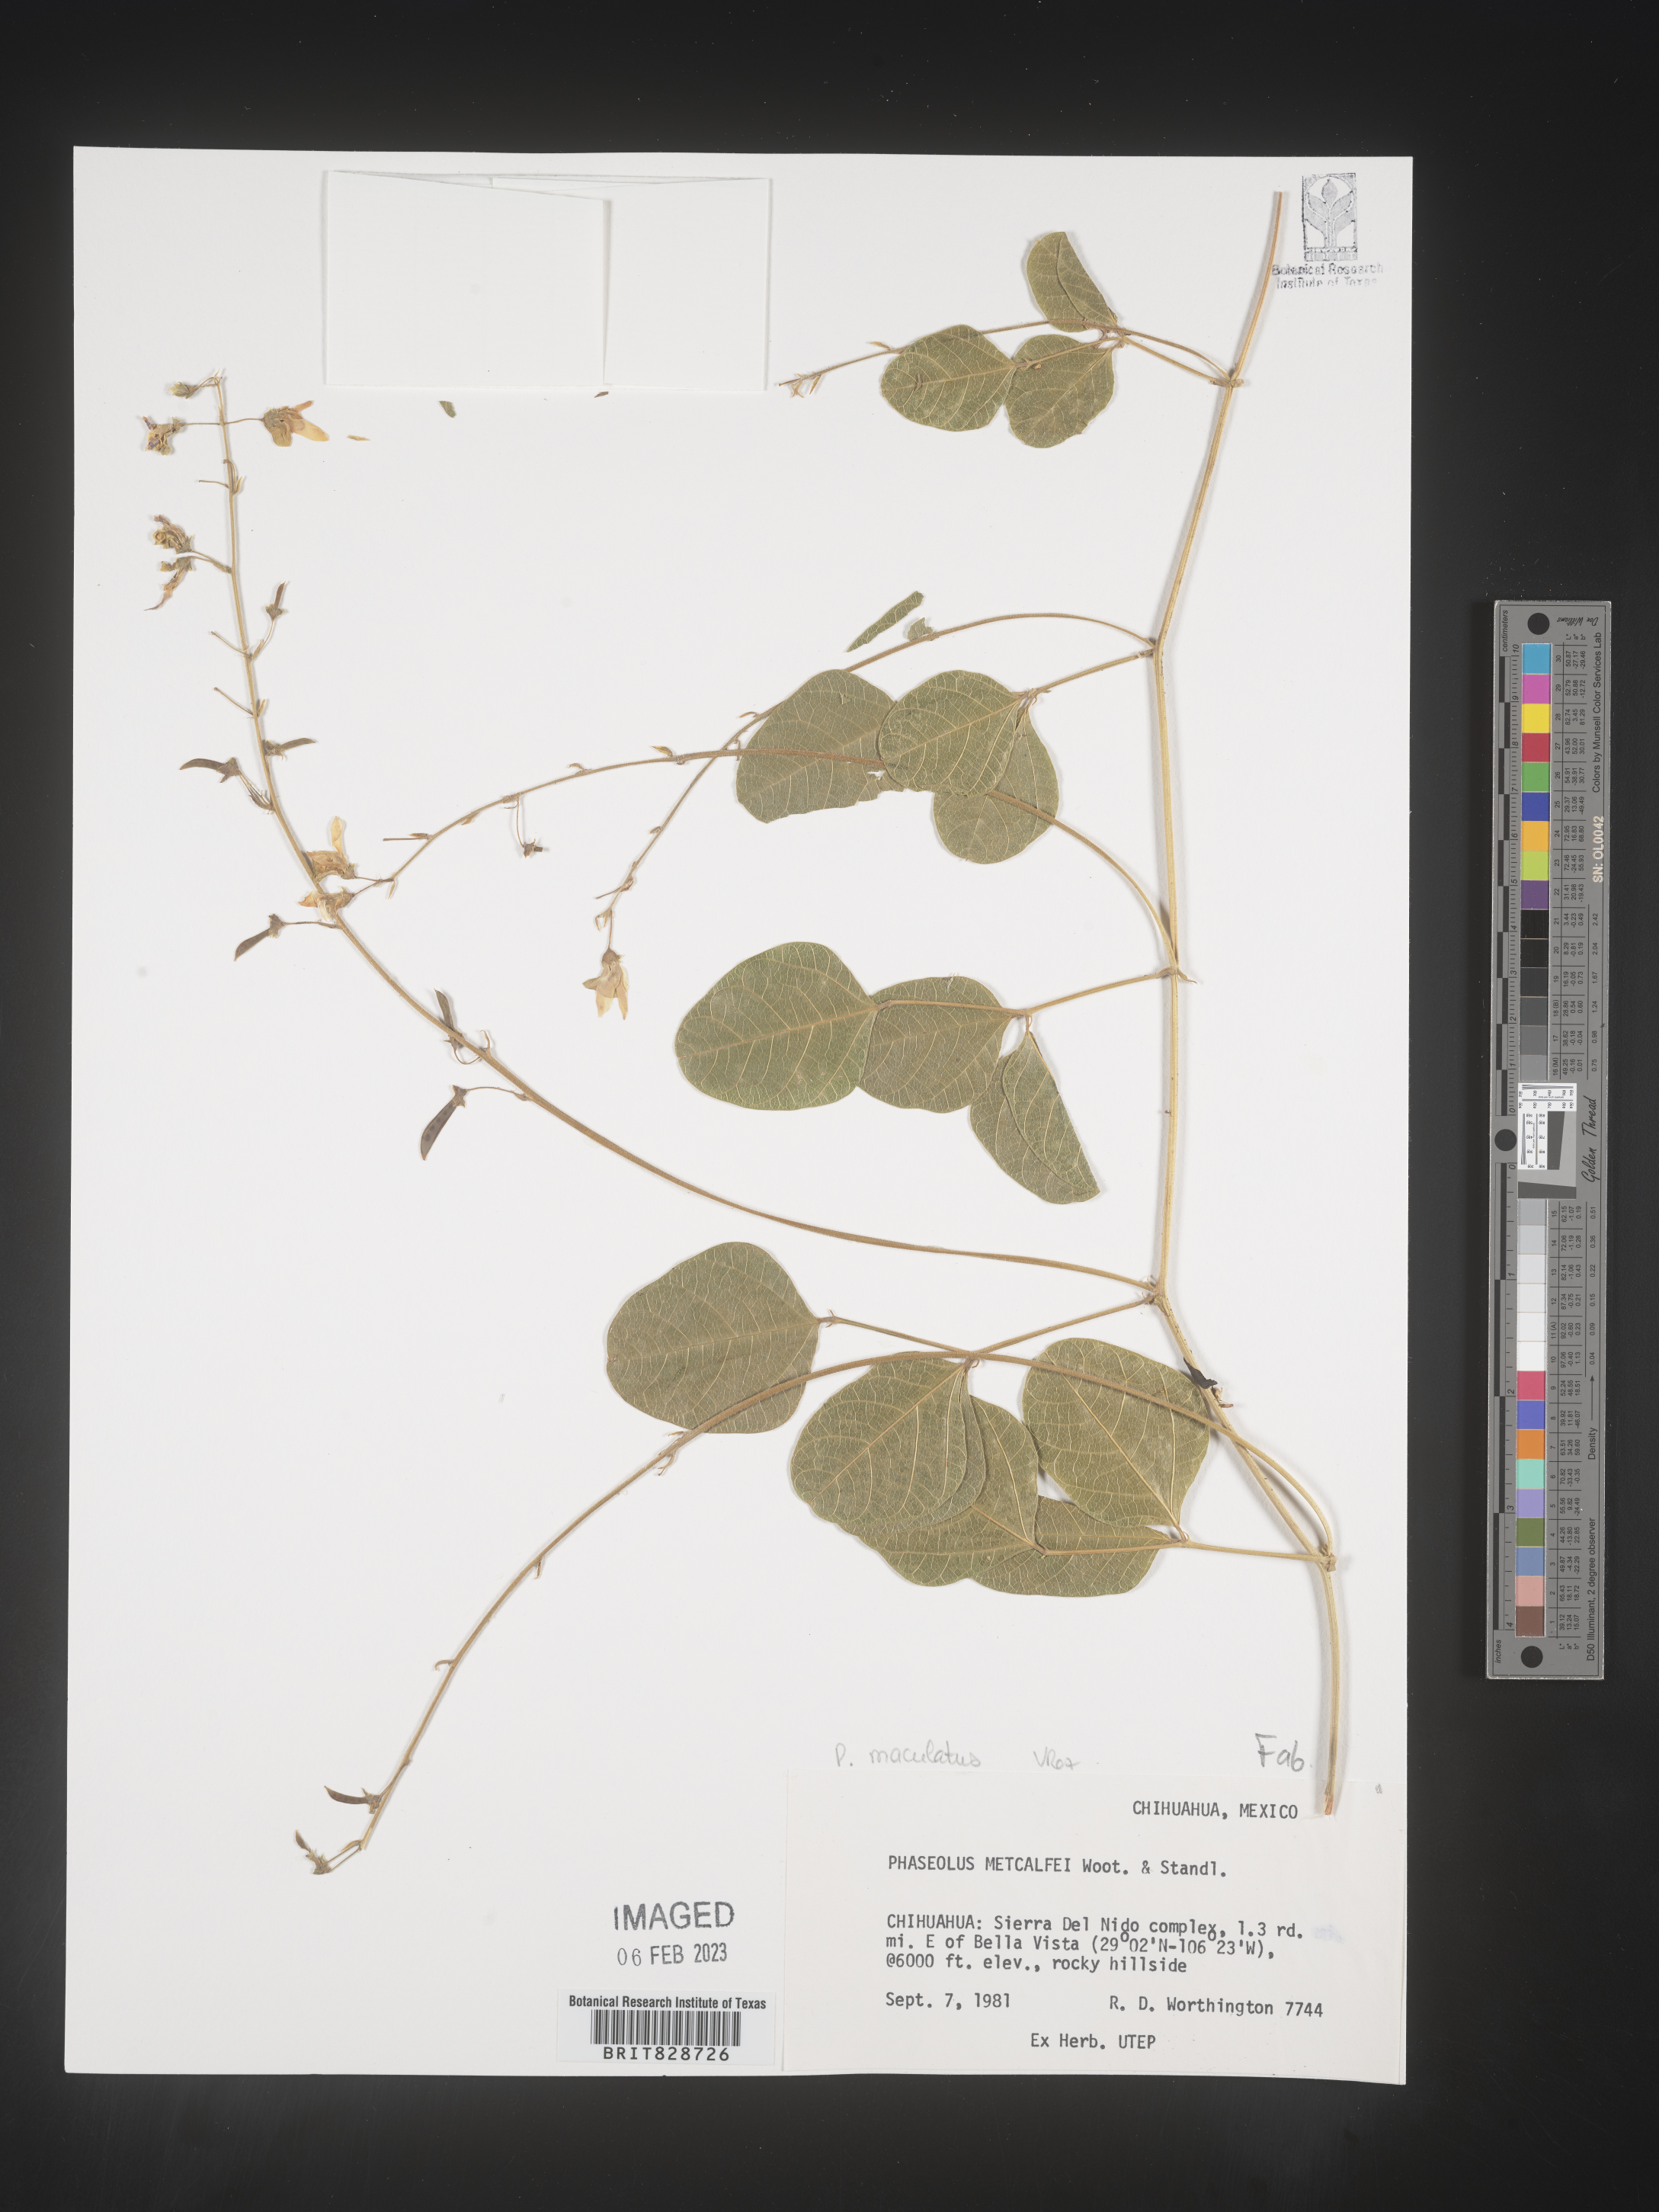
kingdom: Plantae
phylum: Tracheophyta
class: Magnoliopsida
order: Fabales
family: Fabaceae
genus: Phaseolus
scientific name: Phaseolus
